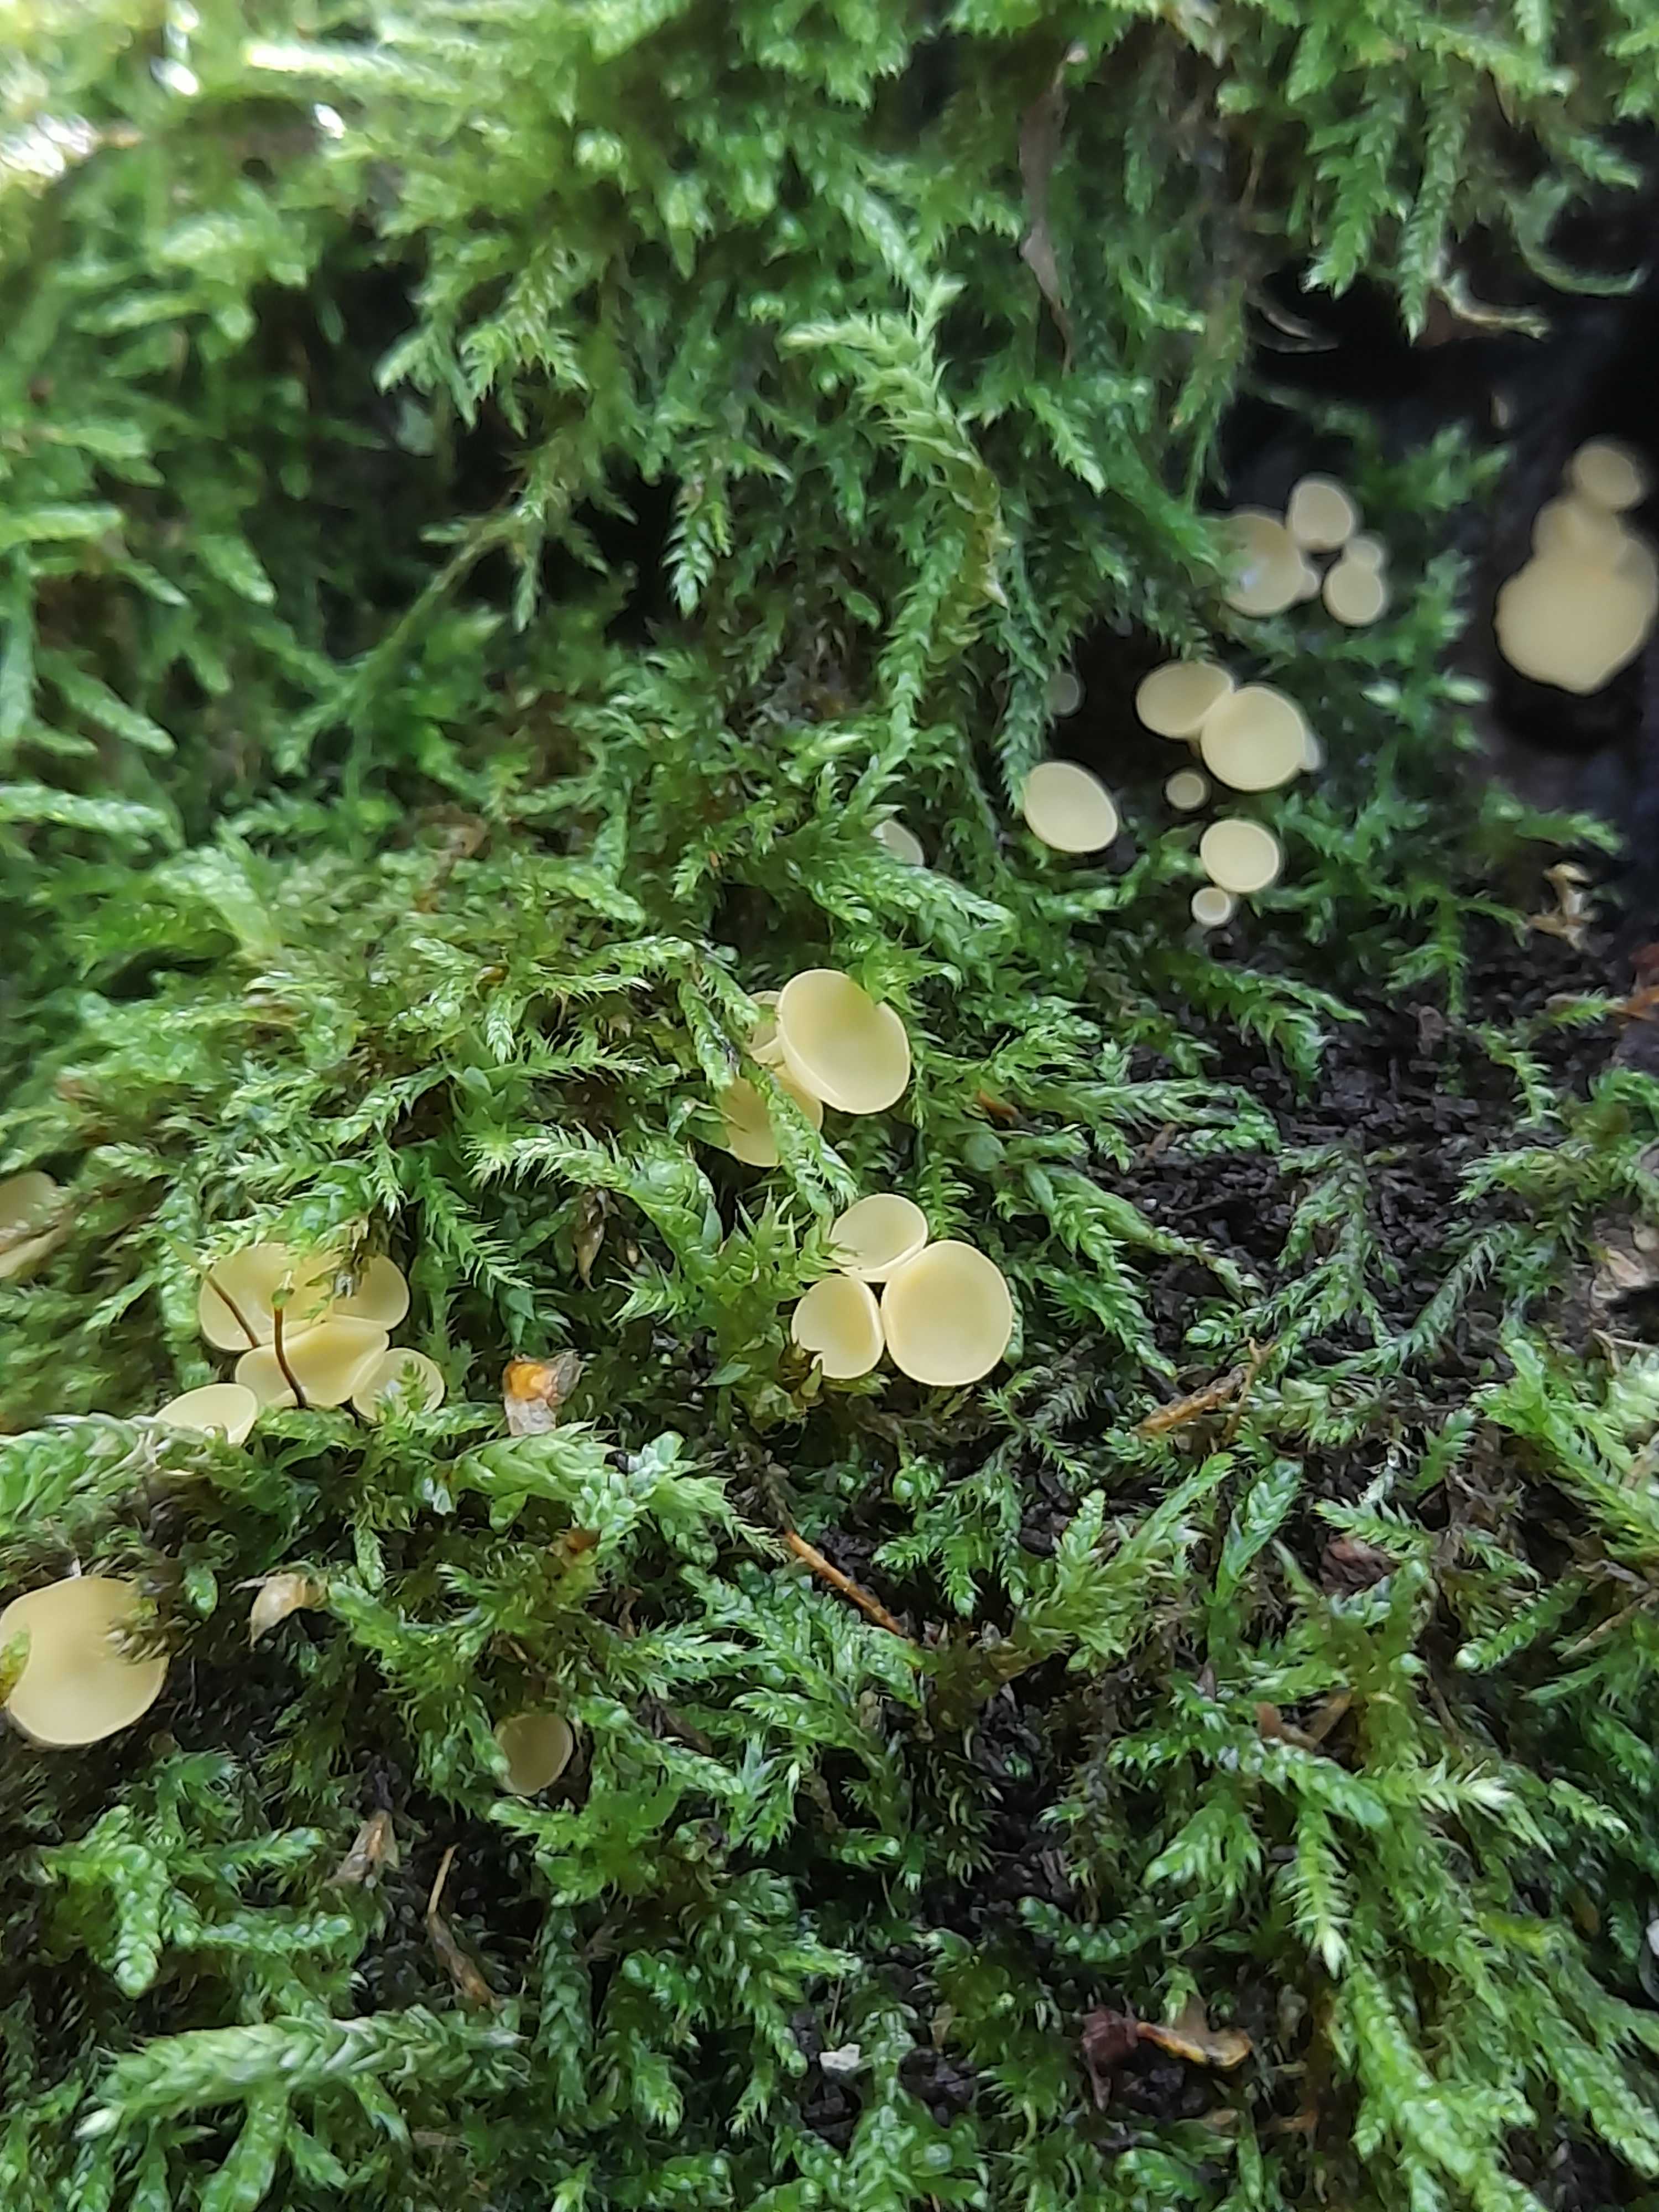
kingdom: Fungi
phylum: Ascomycota
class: Leotiomycetes
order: Helotiales
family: Helotiaceae
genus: Hymenoscyphus
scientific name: Hymenoscyphus
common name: stilkskive
